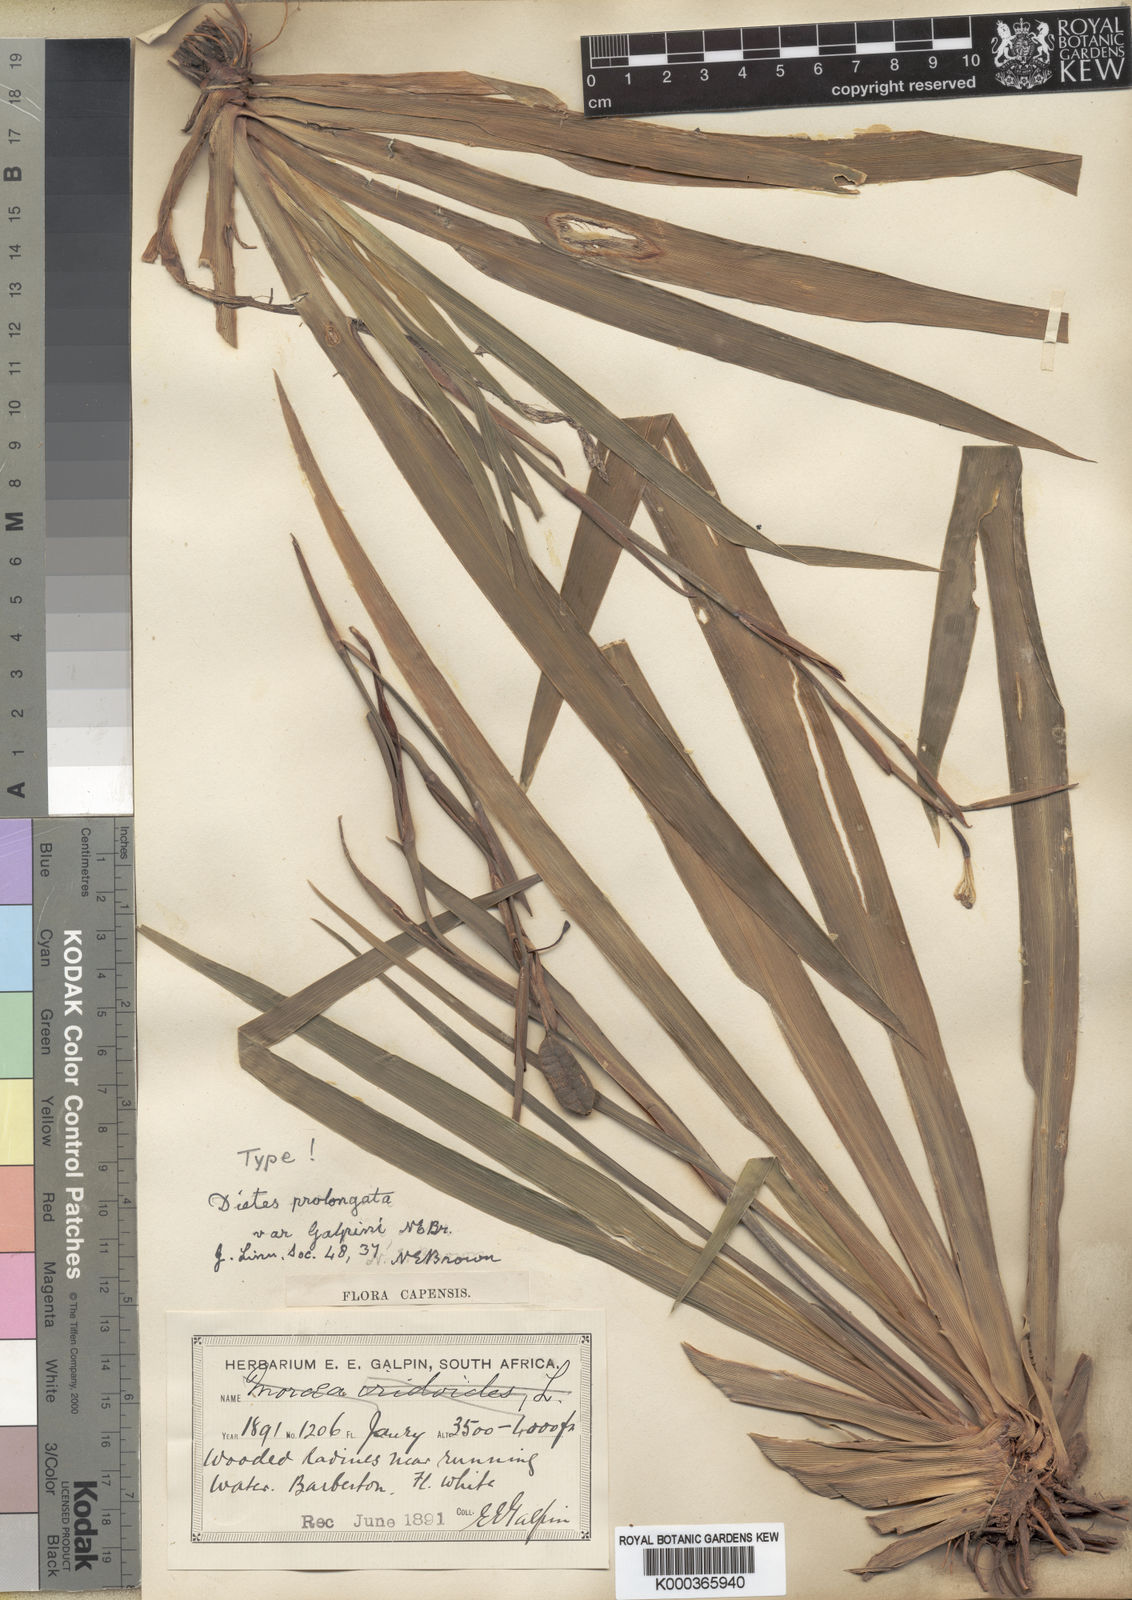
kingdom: Plantae
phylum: Tracheophyta
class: Liliopsida
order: Asparagales
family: Iridaceae
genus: Dietes
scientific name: Dietes iridioides
